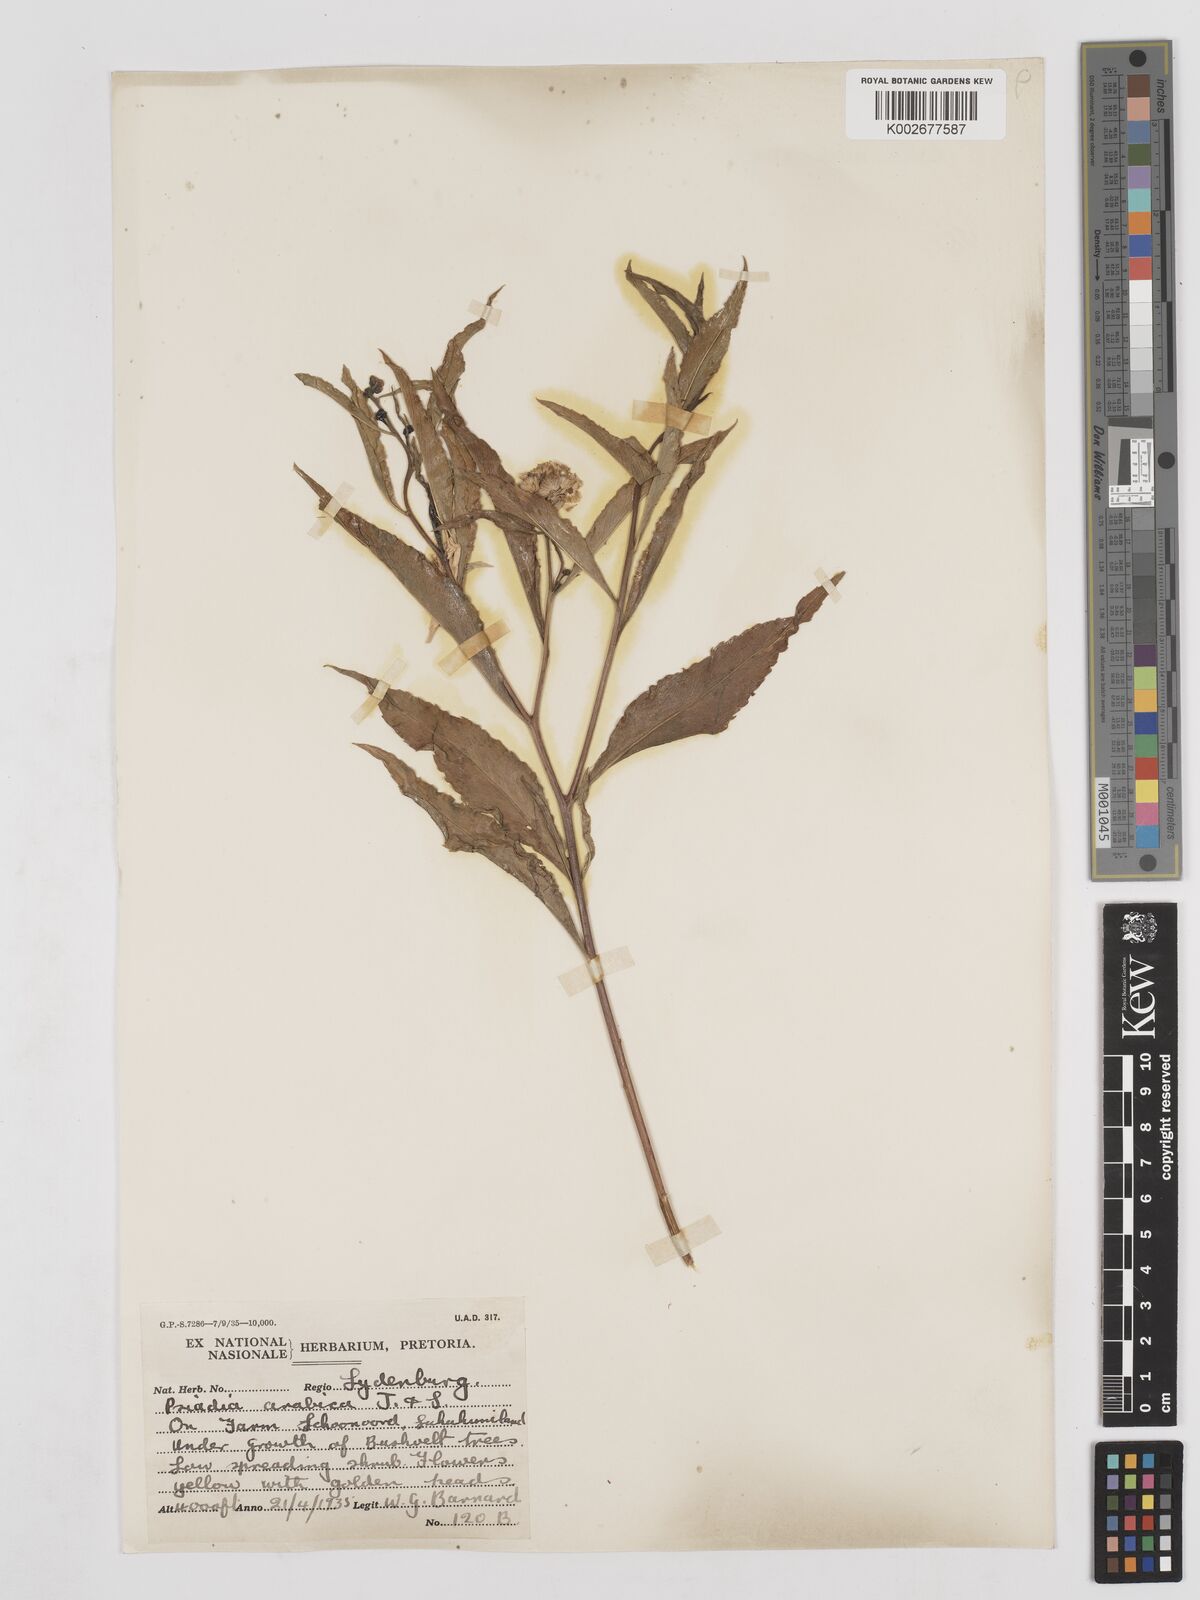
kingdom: Plantae
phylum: Tracheophyta
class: Magnoliopsida
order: Asterales
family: Asteraceae
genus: Psiadia
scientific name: Psiadia punctulata
